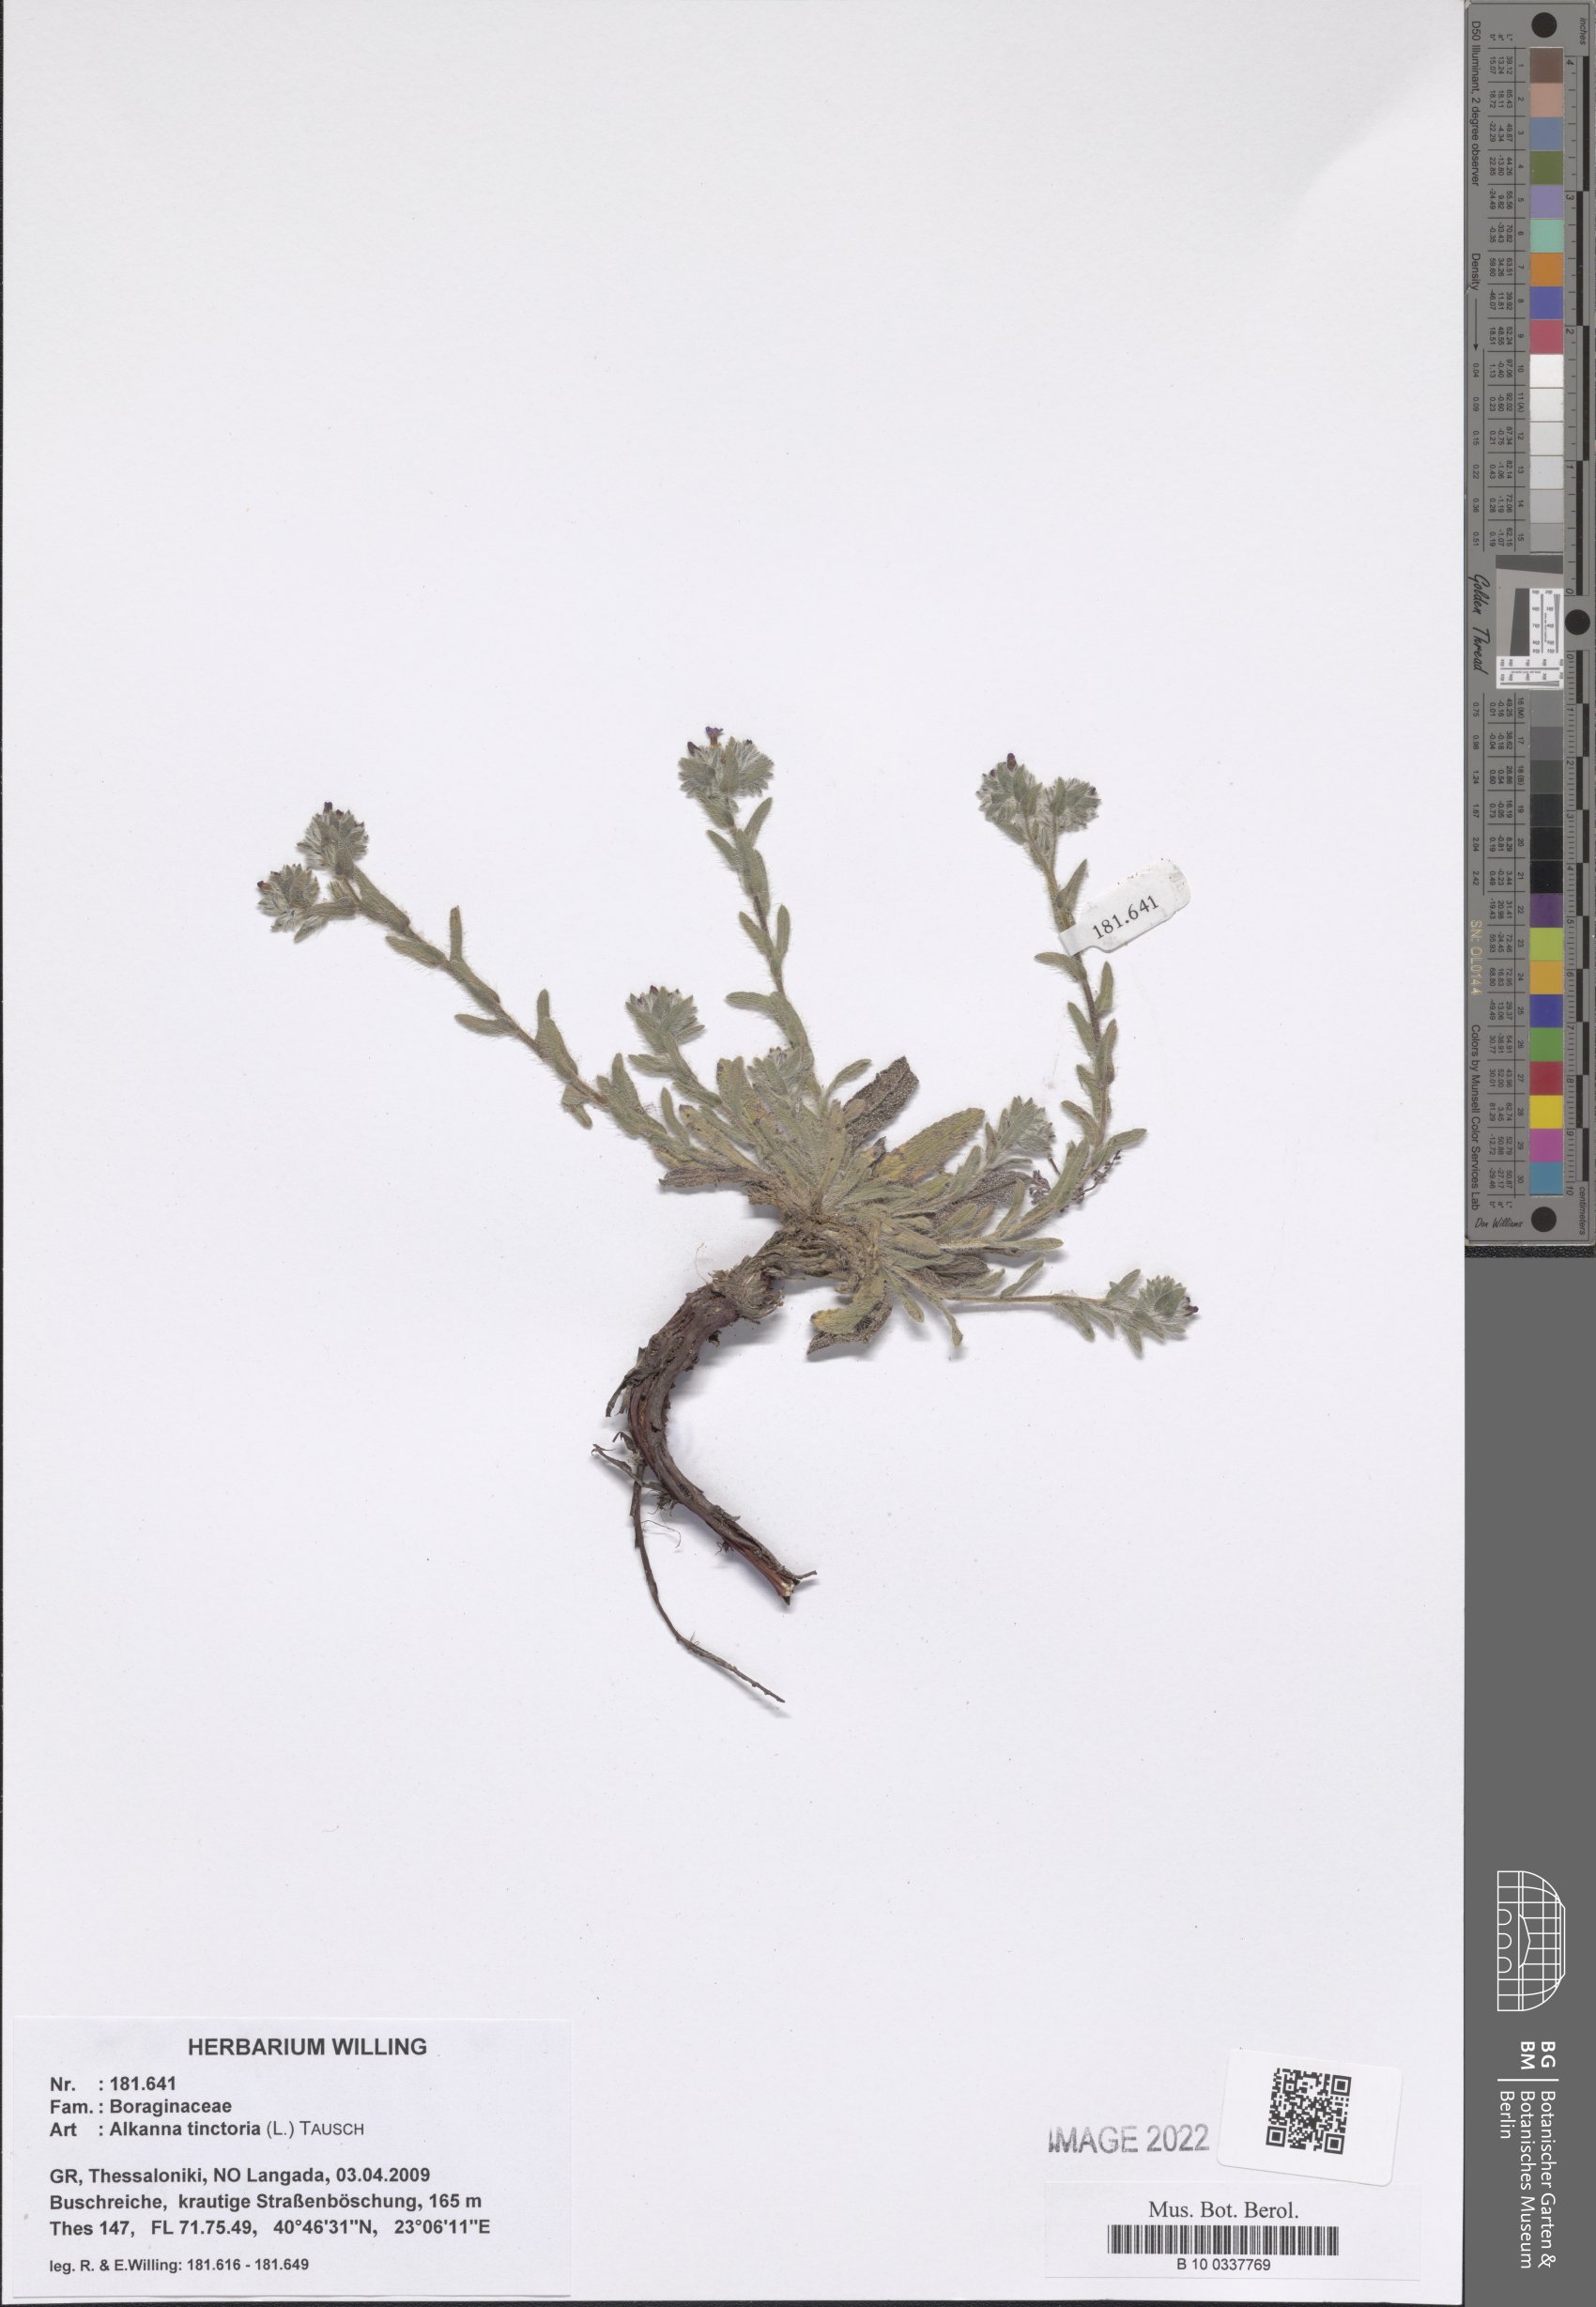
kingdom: Plantae
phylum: Tracheophyta
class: Magnoliopsida
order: Boraginales
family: Boraginaceae
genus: Alkanna
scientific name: Alkanna tinctoria
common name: Dyer's-alkanet
